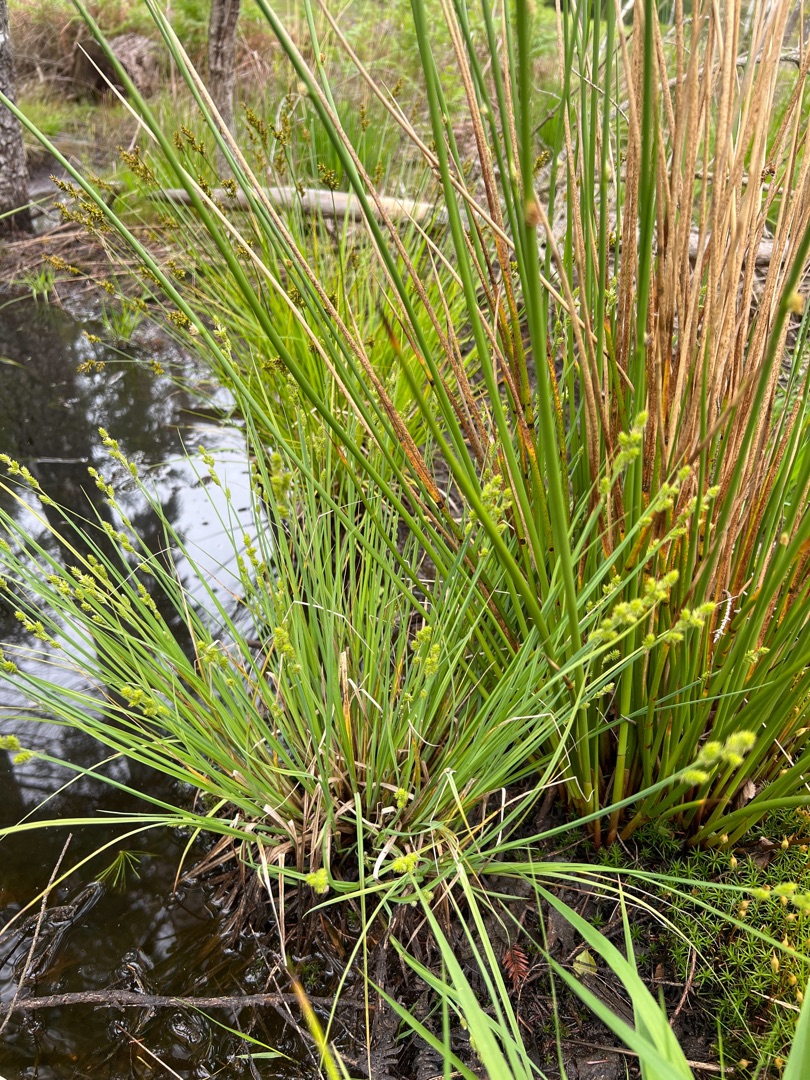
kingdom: Plantae
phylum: Tracheophyta
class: Liliopsida
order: Poales
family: Cyperaceae
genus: Carex
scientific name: Carex canescens
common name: Grå star
